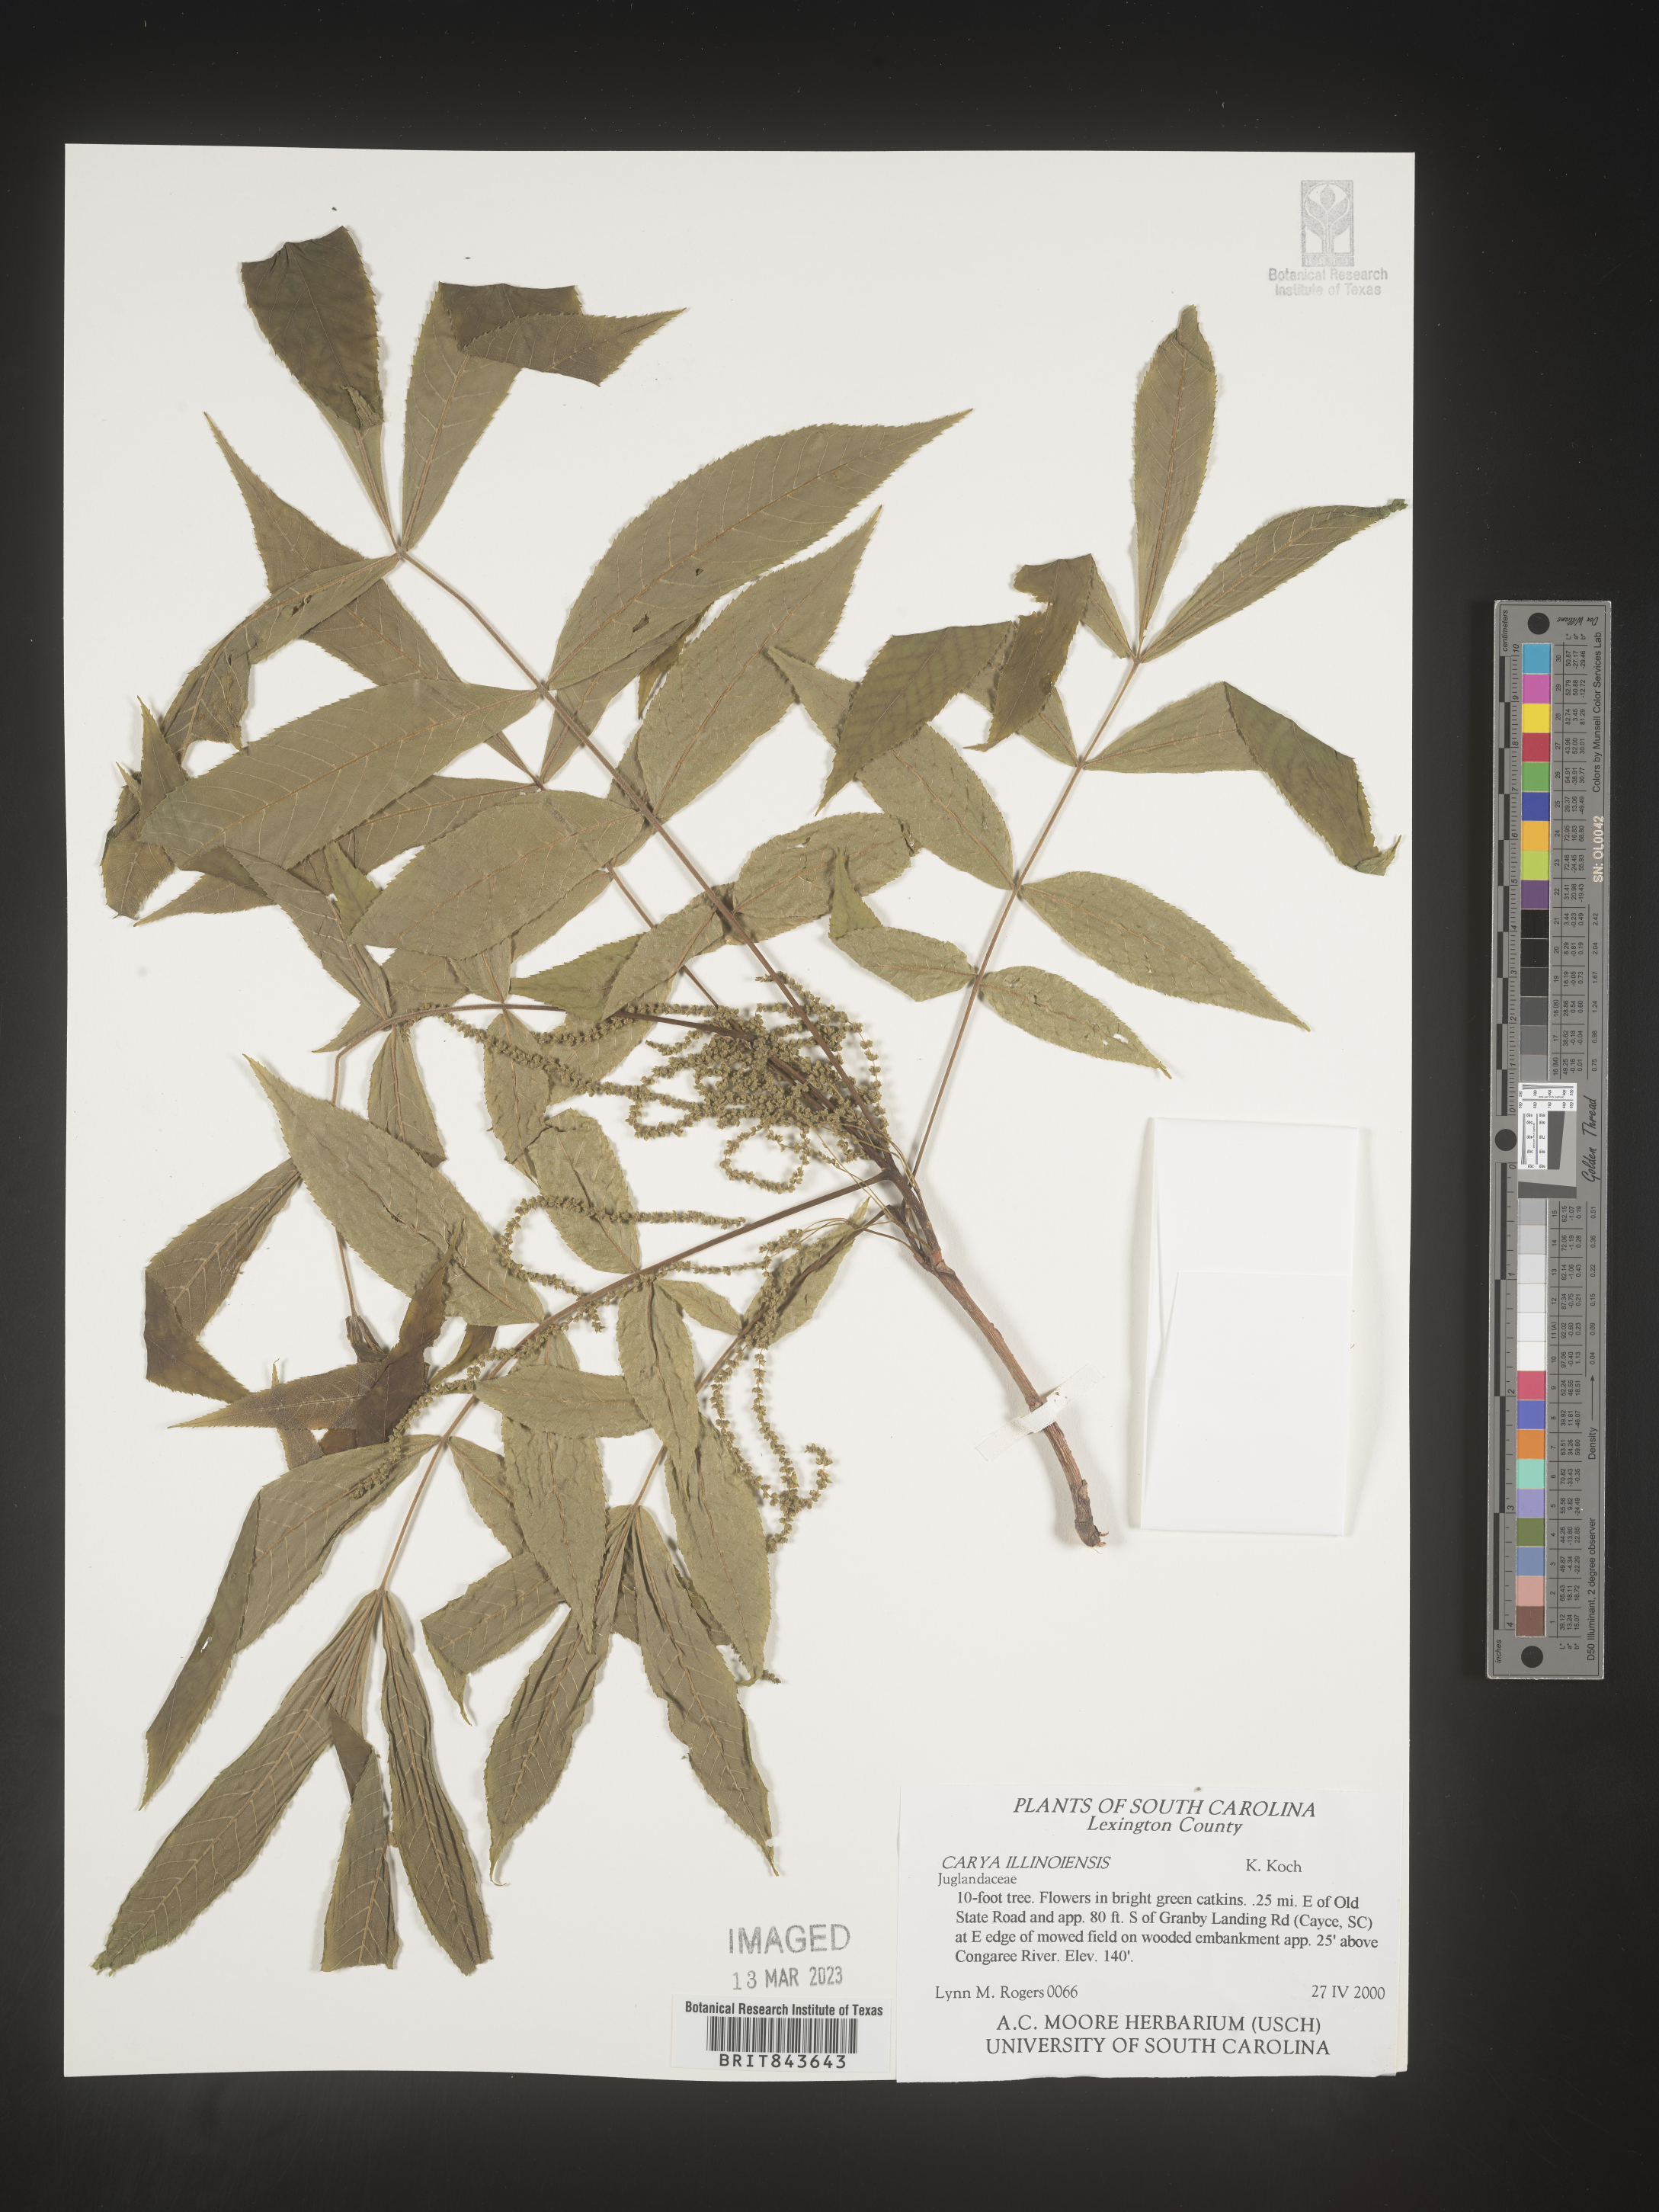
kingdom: Plantae
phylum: Tracheophyta
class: Magnoliopsida
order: Fagales
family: Juglandaceae
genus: Carya
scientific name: Carya illinoinensis
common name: Pecan
